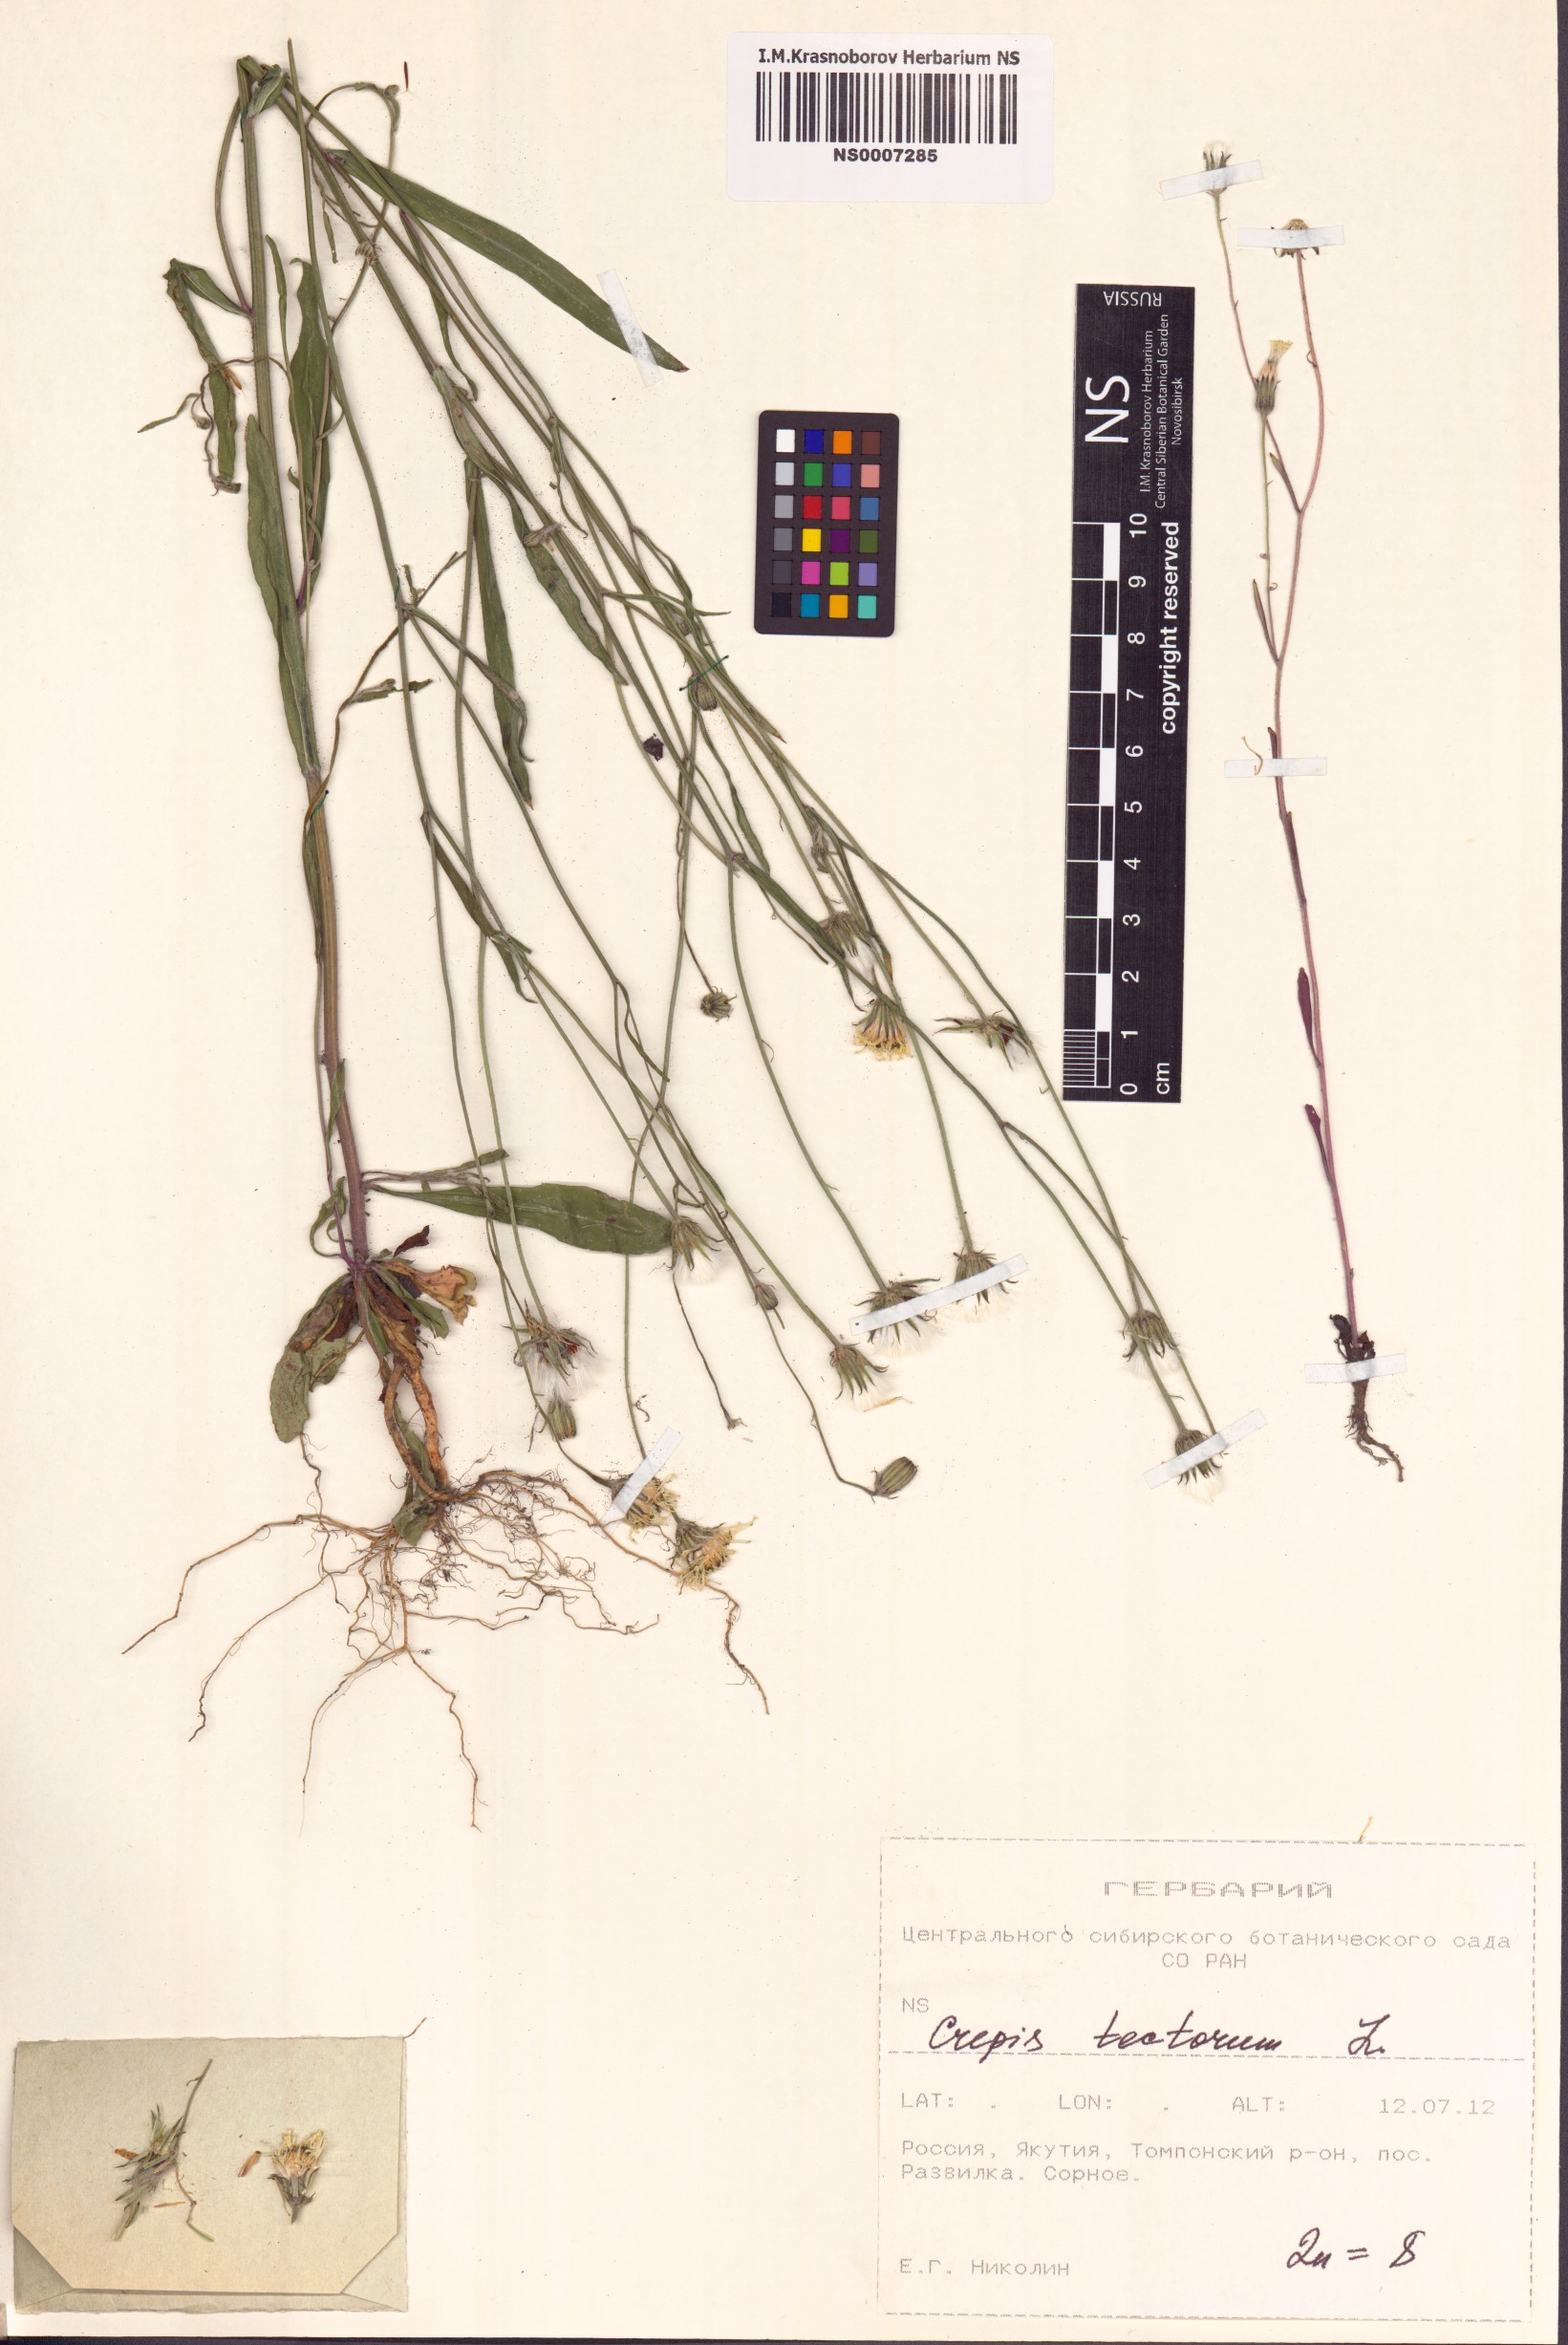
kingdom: Plantae
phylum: Tracheophyta
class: Magnoliopsida
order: Asterales
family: Asteraceae
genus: Crepis
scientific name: Crepis tectorum
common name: Narrow-leaved hawk's-beard
